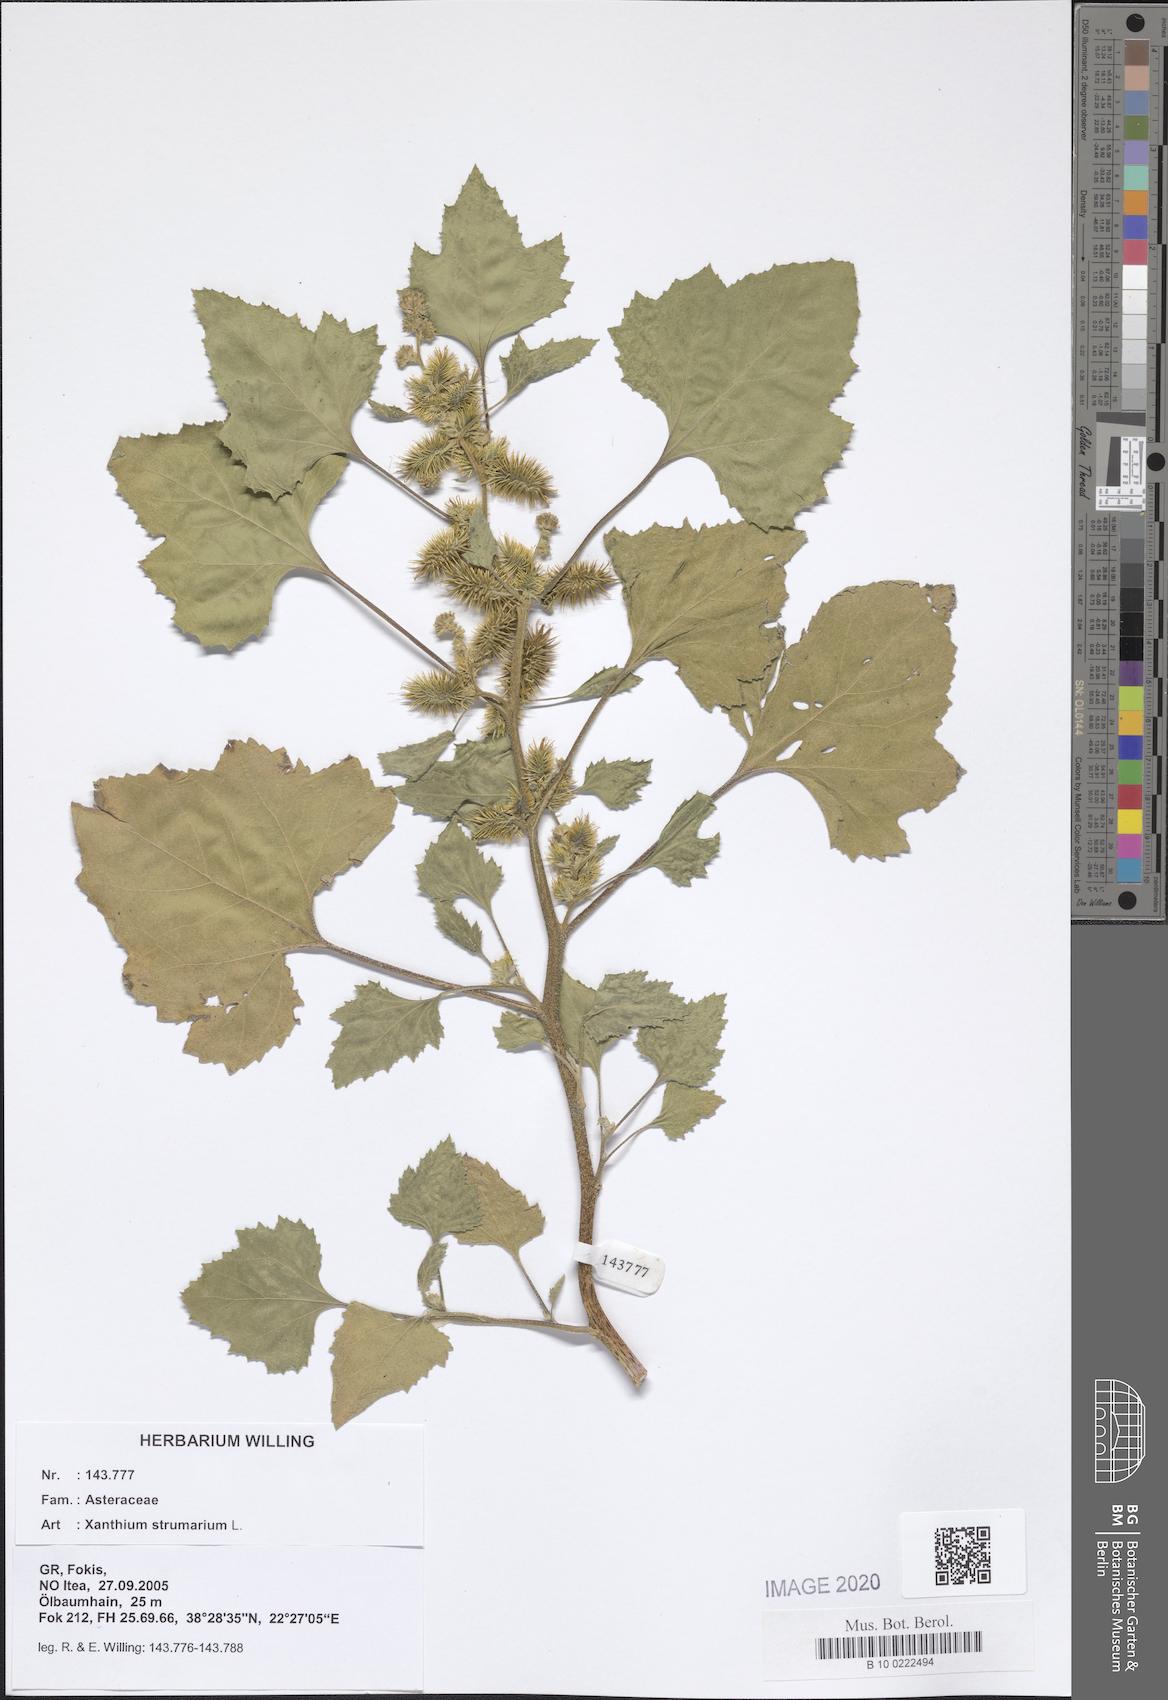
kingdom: Plantae
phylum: Tracheophyta
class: Magnoliopsida
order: Asterales
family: Asteraceae
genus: Xanthium
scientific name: Xanthium strumarium
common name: Rough cocklebur
